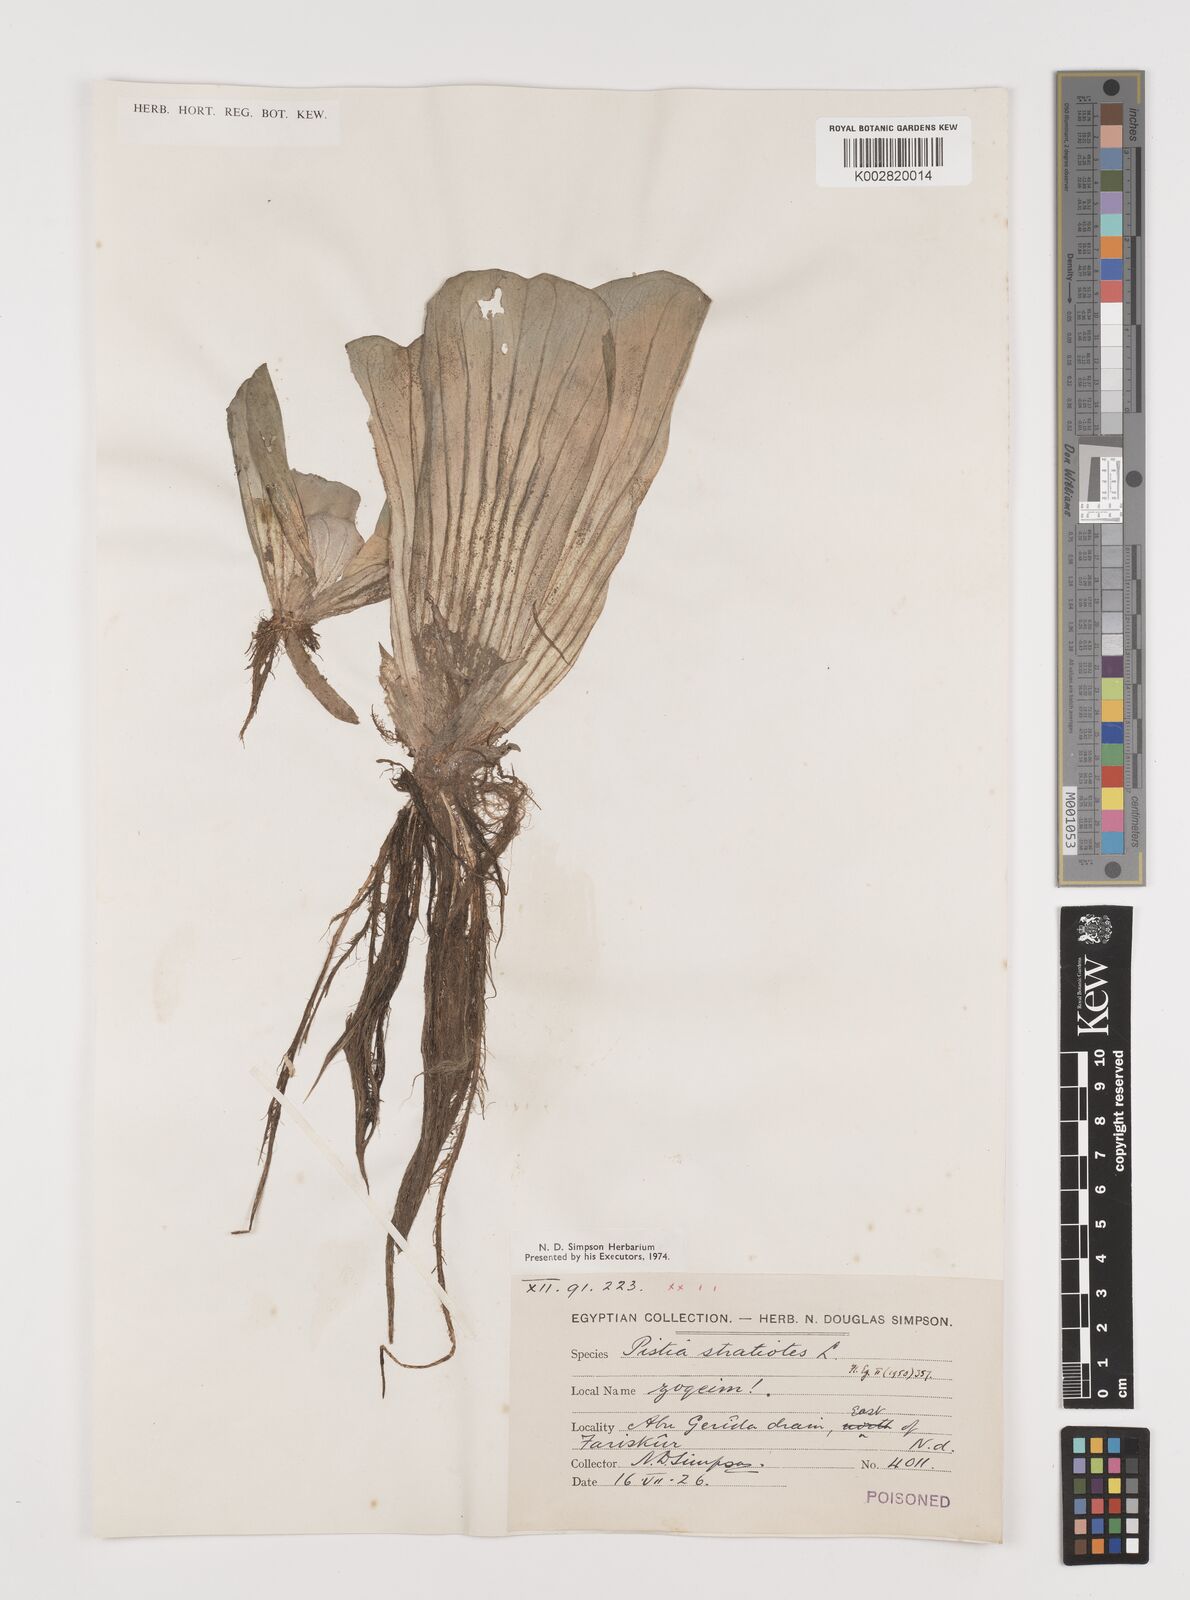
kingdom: Plantae
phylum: Tracheophyta
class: Liliopsida
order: Alismatales
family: Araceae
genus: Pistia
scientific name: Pistia stratiotes
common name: Water lettuce
